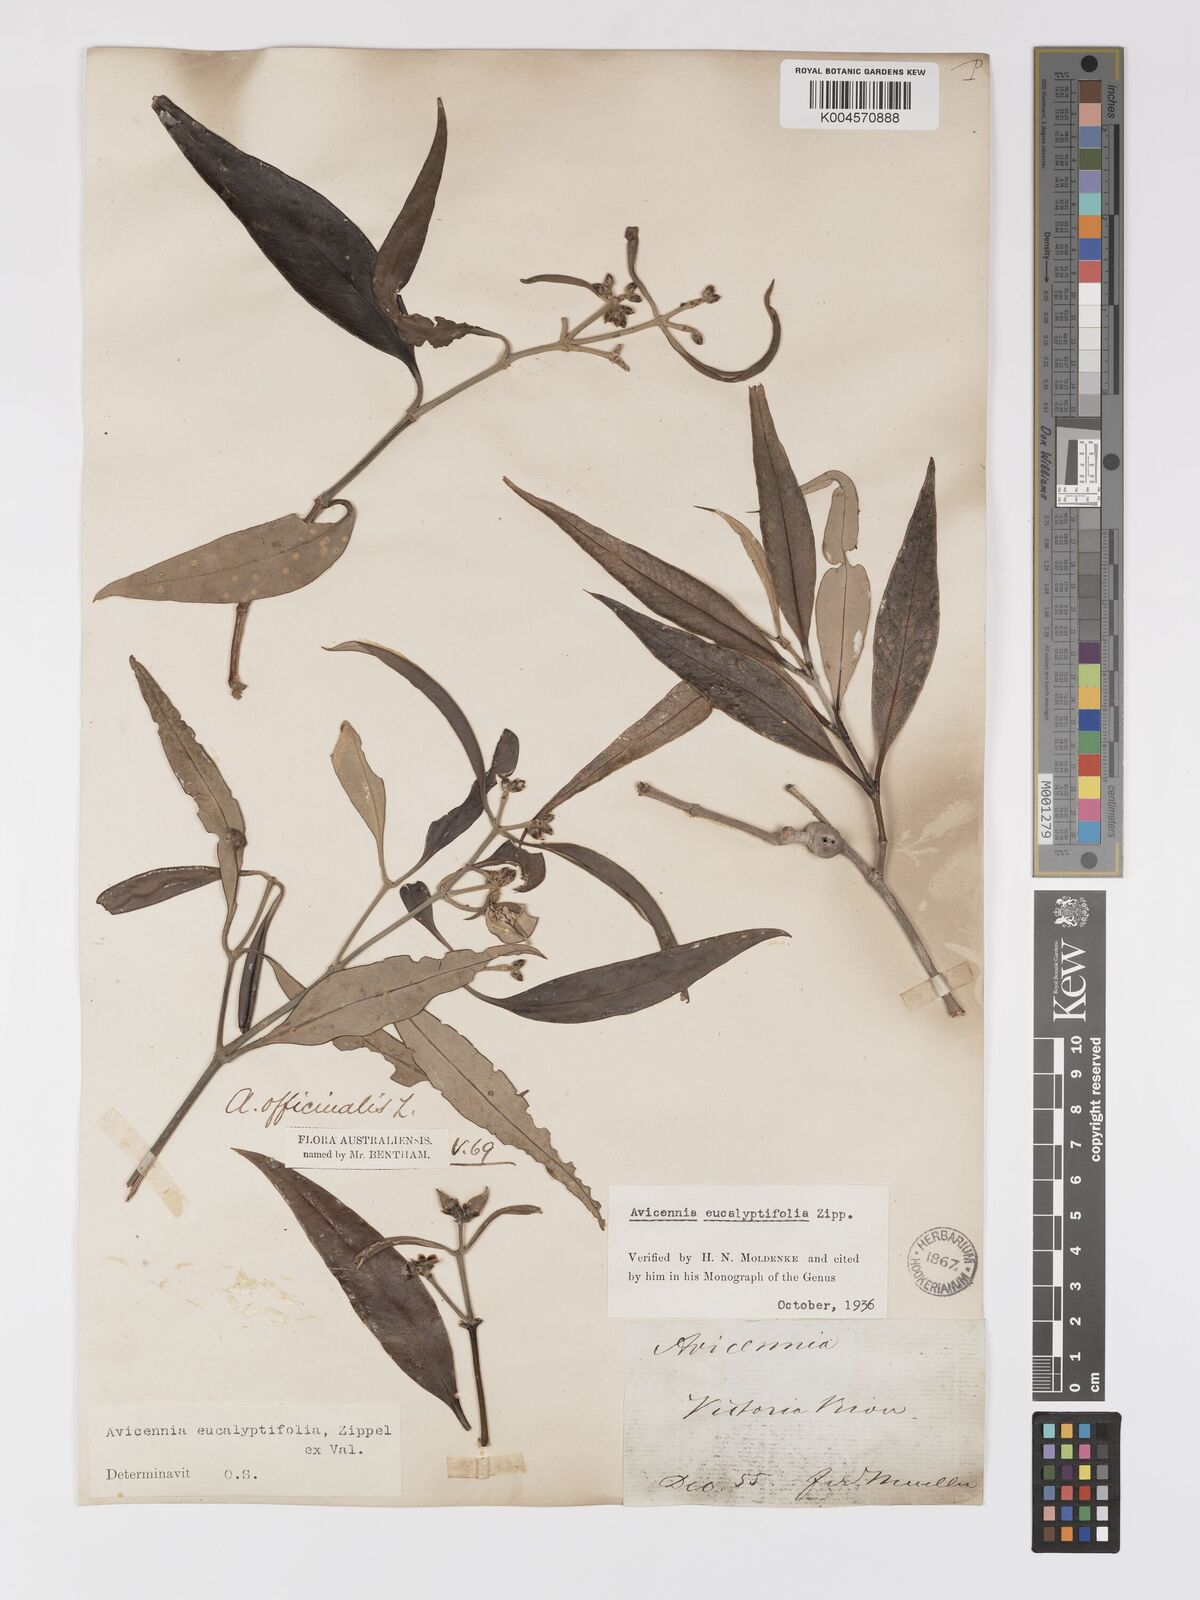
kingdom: Plantae
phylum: Tracheophyta
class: Magnoliopsida
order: Lamiales
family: Acanthaceae
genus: Avicennia
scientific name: Avicennia marina
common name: Gray mangrove
